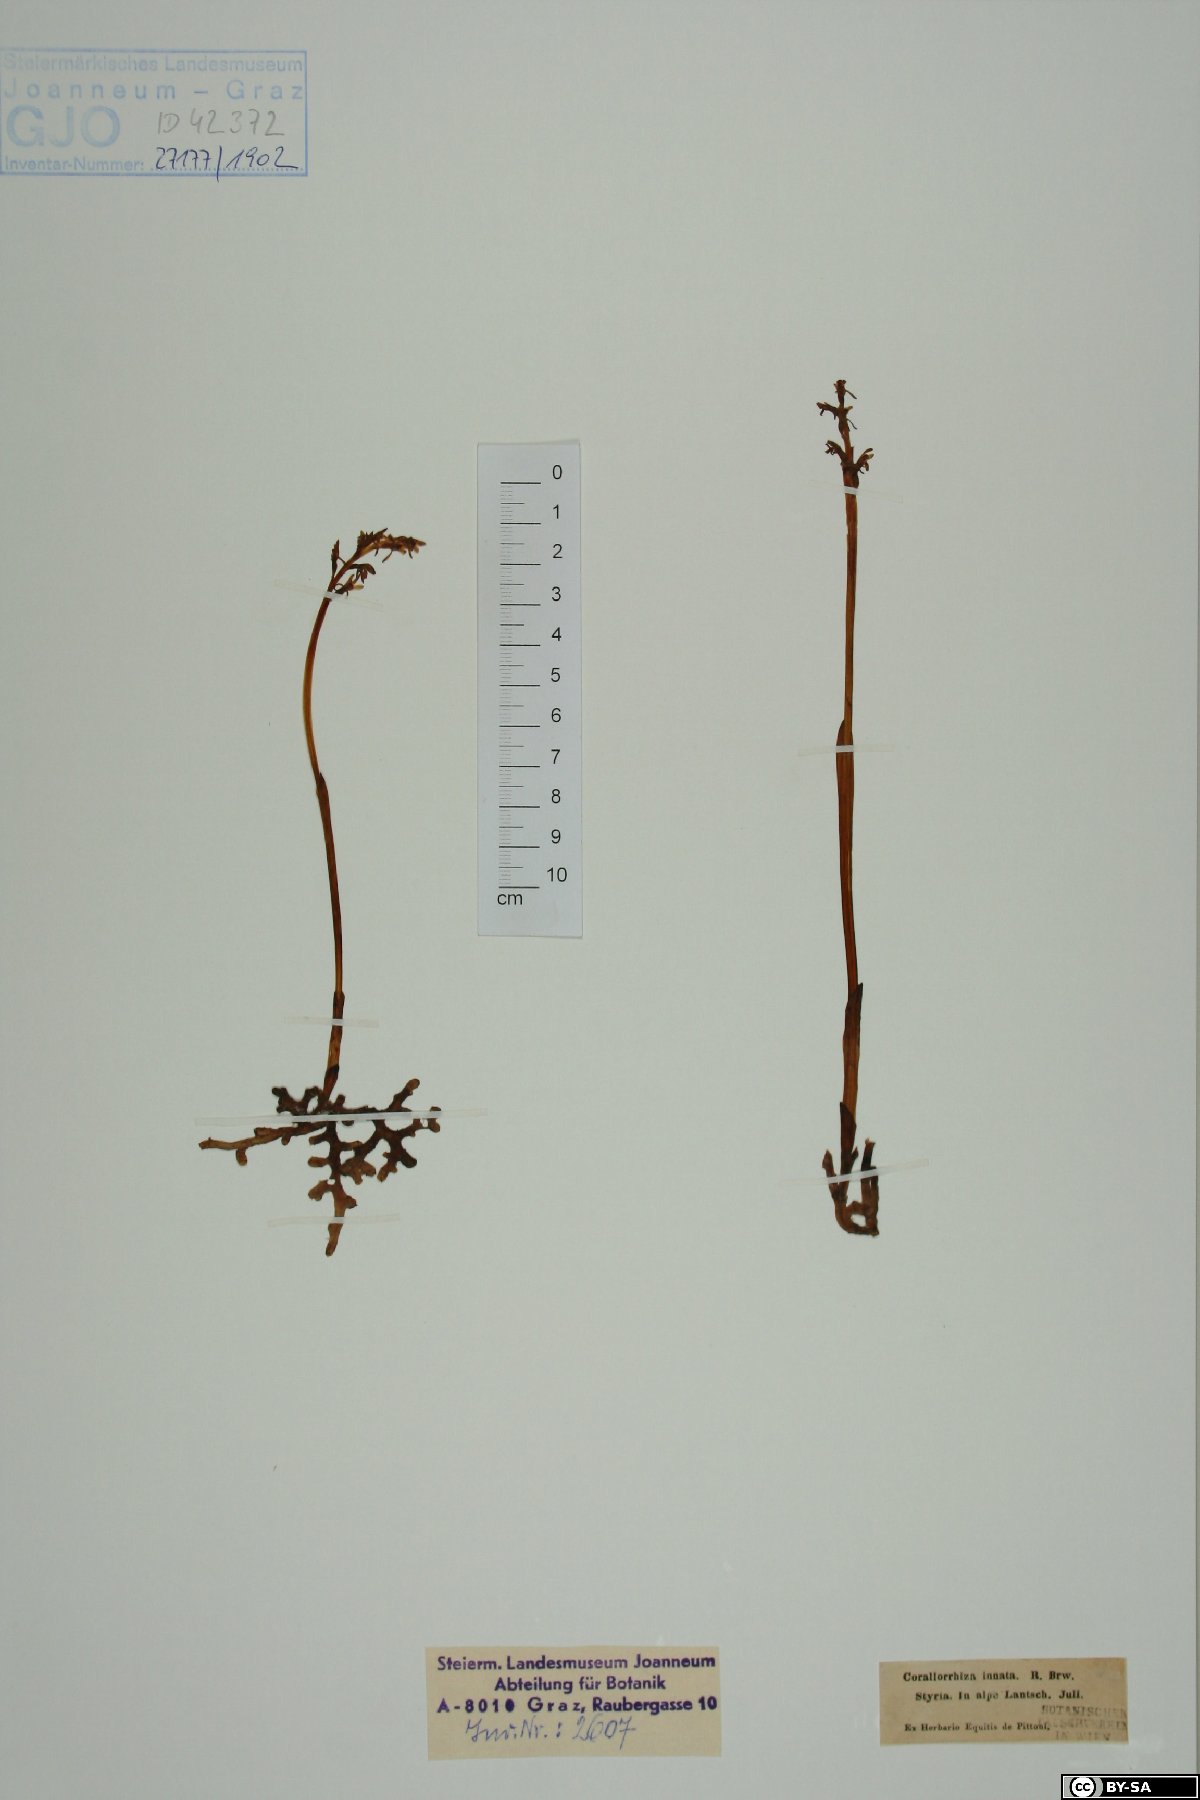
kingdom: Plantae
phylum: Tracheophyta
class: Liliopsida
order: Asparagales
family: Orchidaceae
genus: Corallorhiza
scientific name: Corallorhiza trifida
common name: Yellow coralroot
